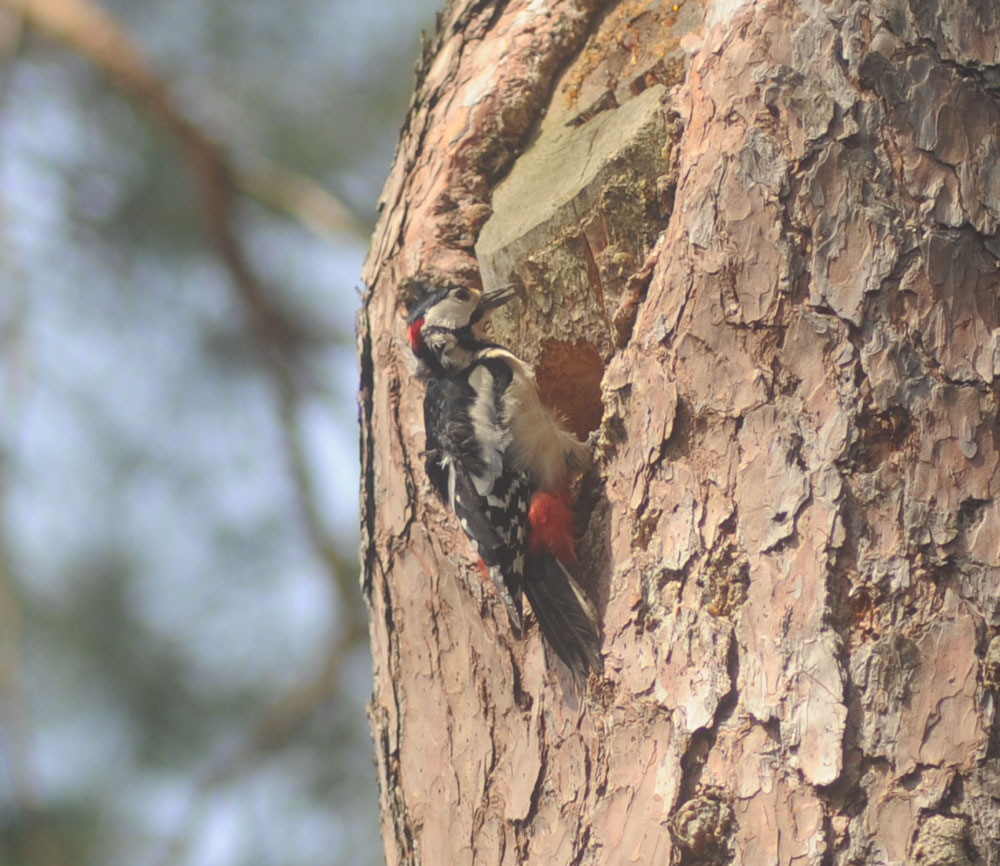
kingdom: Animalia
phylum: Chordata
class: Aves
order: Piciformes
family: Picidae
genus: Dendrocopos
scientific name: Dendrocopos major
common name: Great spotted woodpecker
